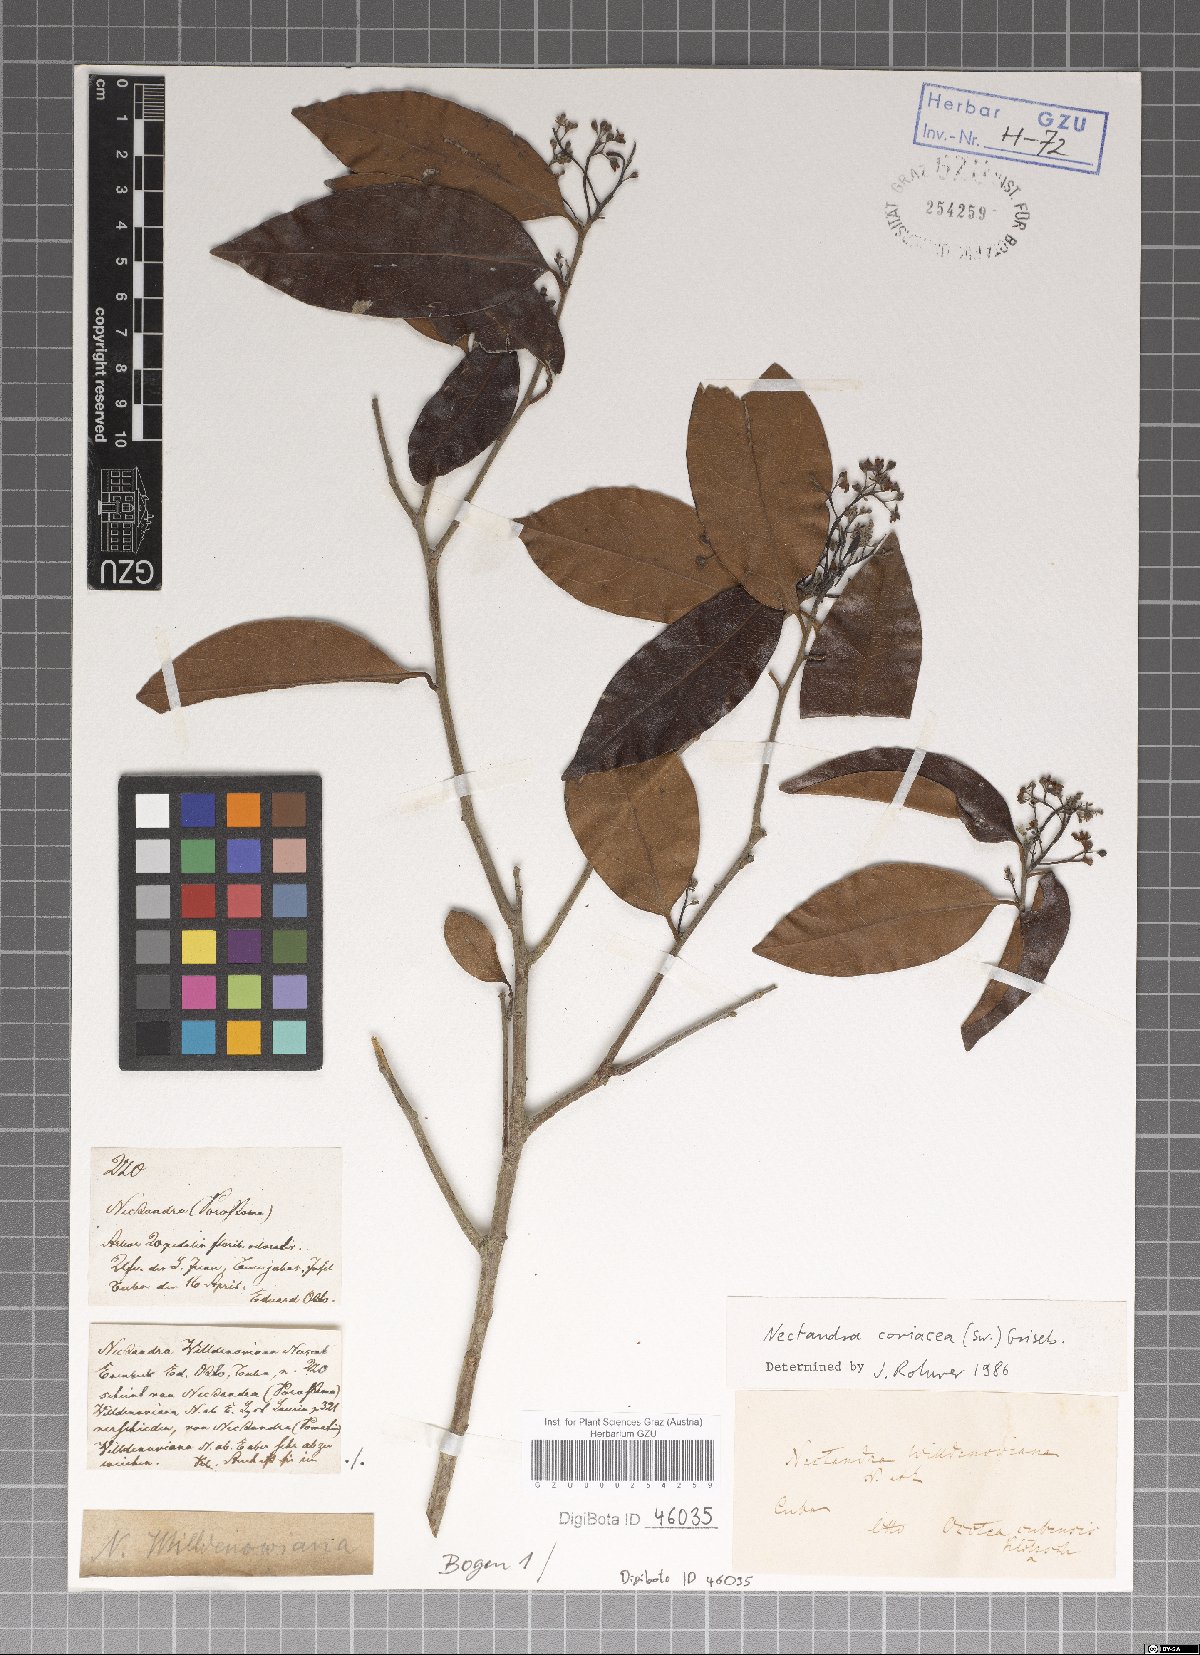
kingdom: Plantae
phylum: Tracheophyta
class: Magnoliopsida
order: Laurales
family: Lauraceae
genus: Damburneya
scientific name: Damburneya coriacea
